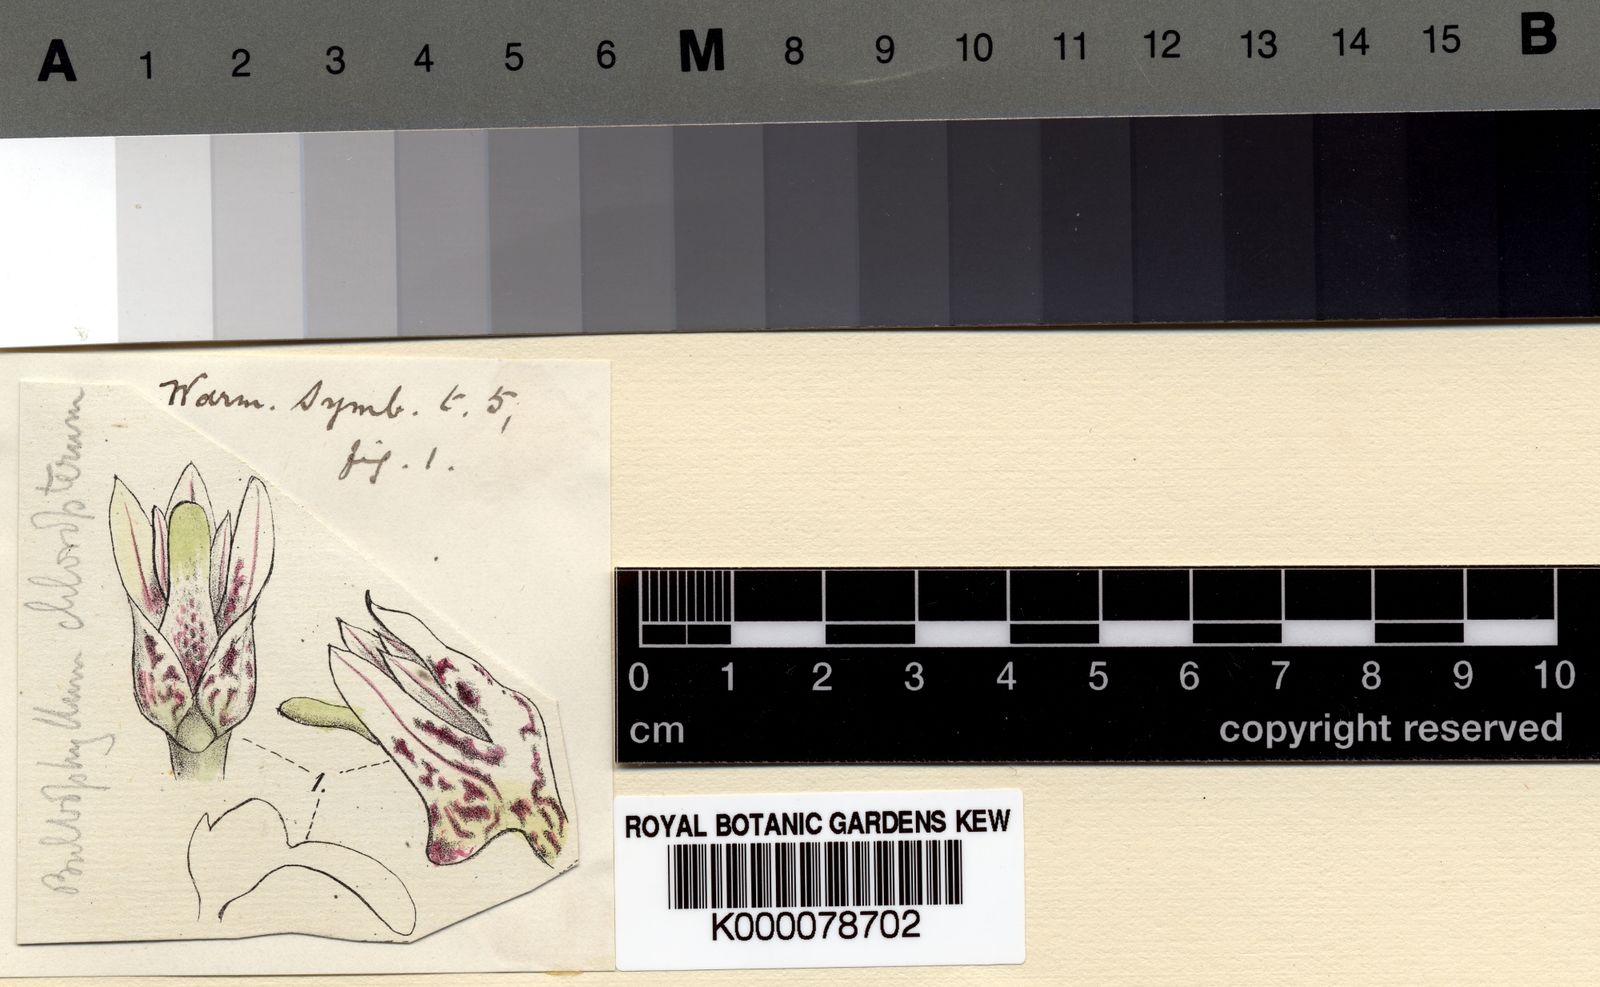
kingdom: Plantae
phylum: Tracheophyta
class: Liliopsida
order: Asparagales
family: Orchidaceae
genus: Bulbophyllum
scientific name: Bulbophyllum chloropterum
